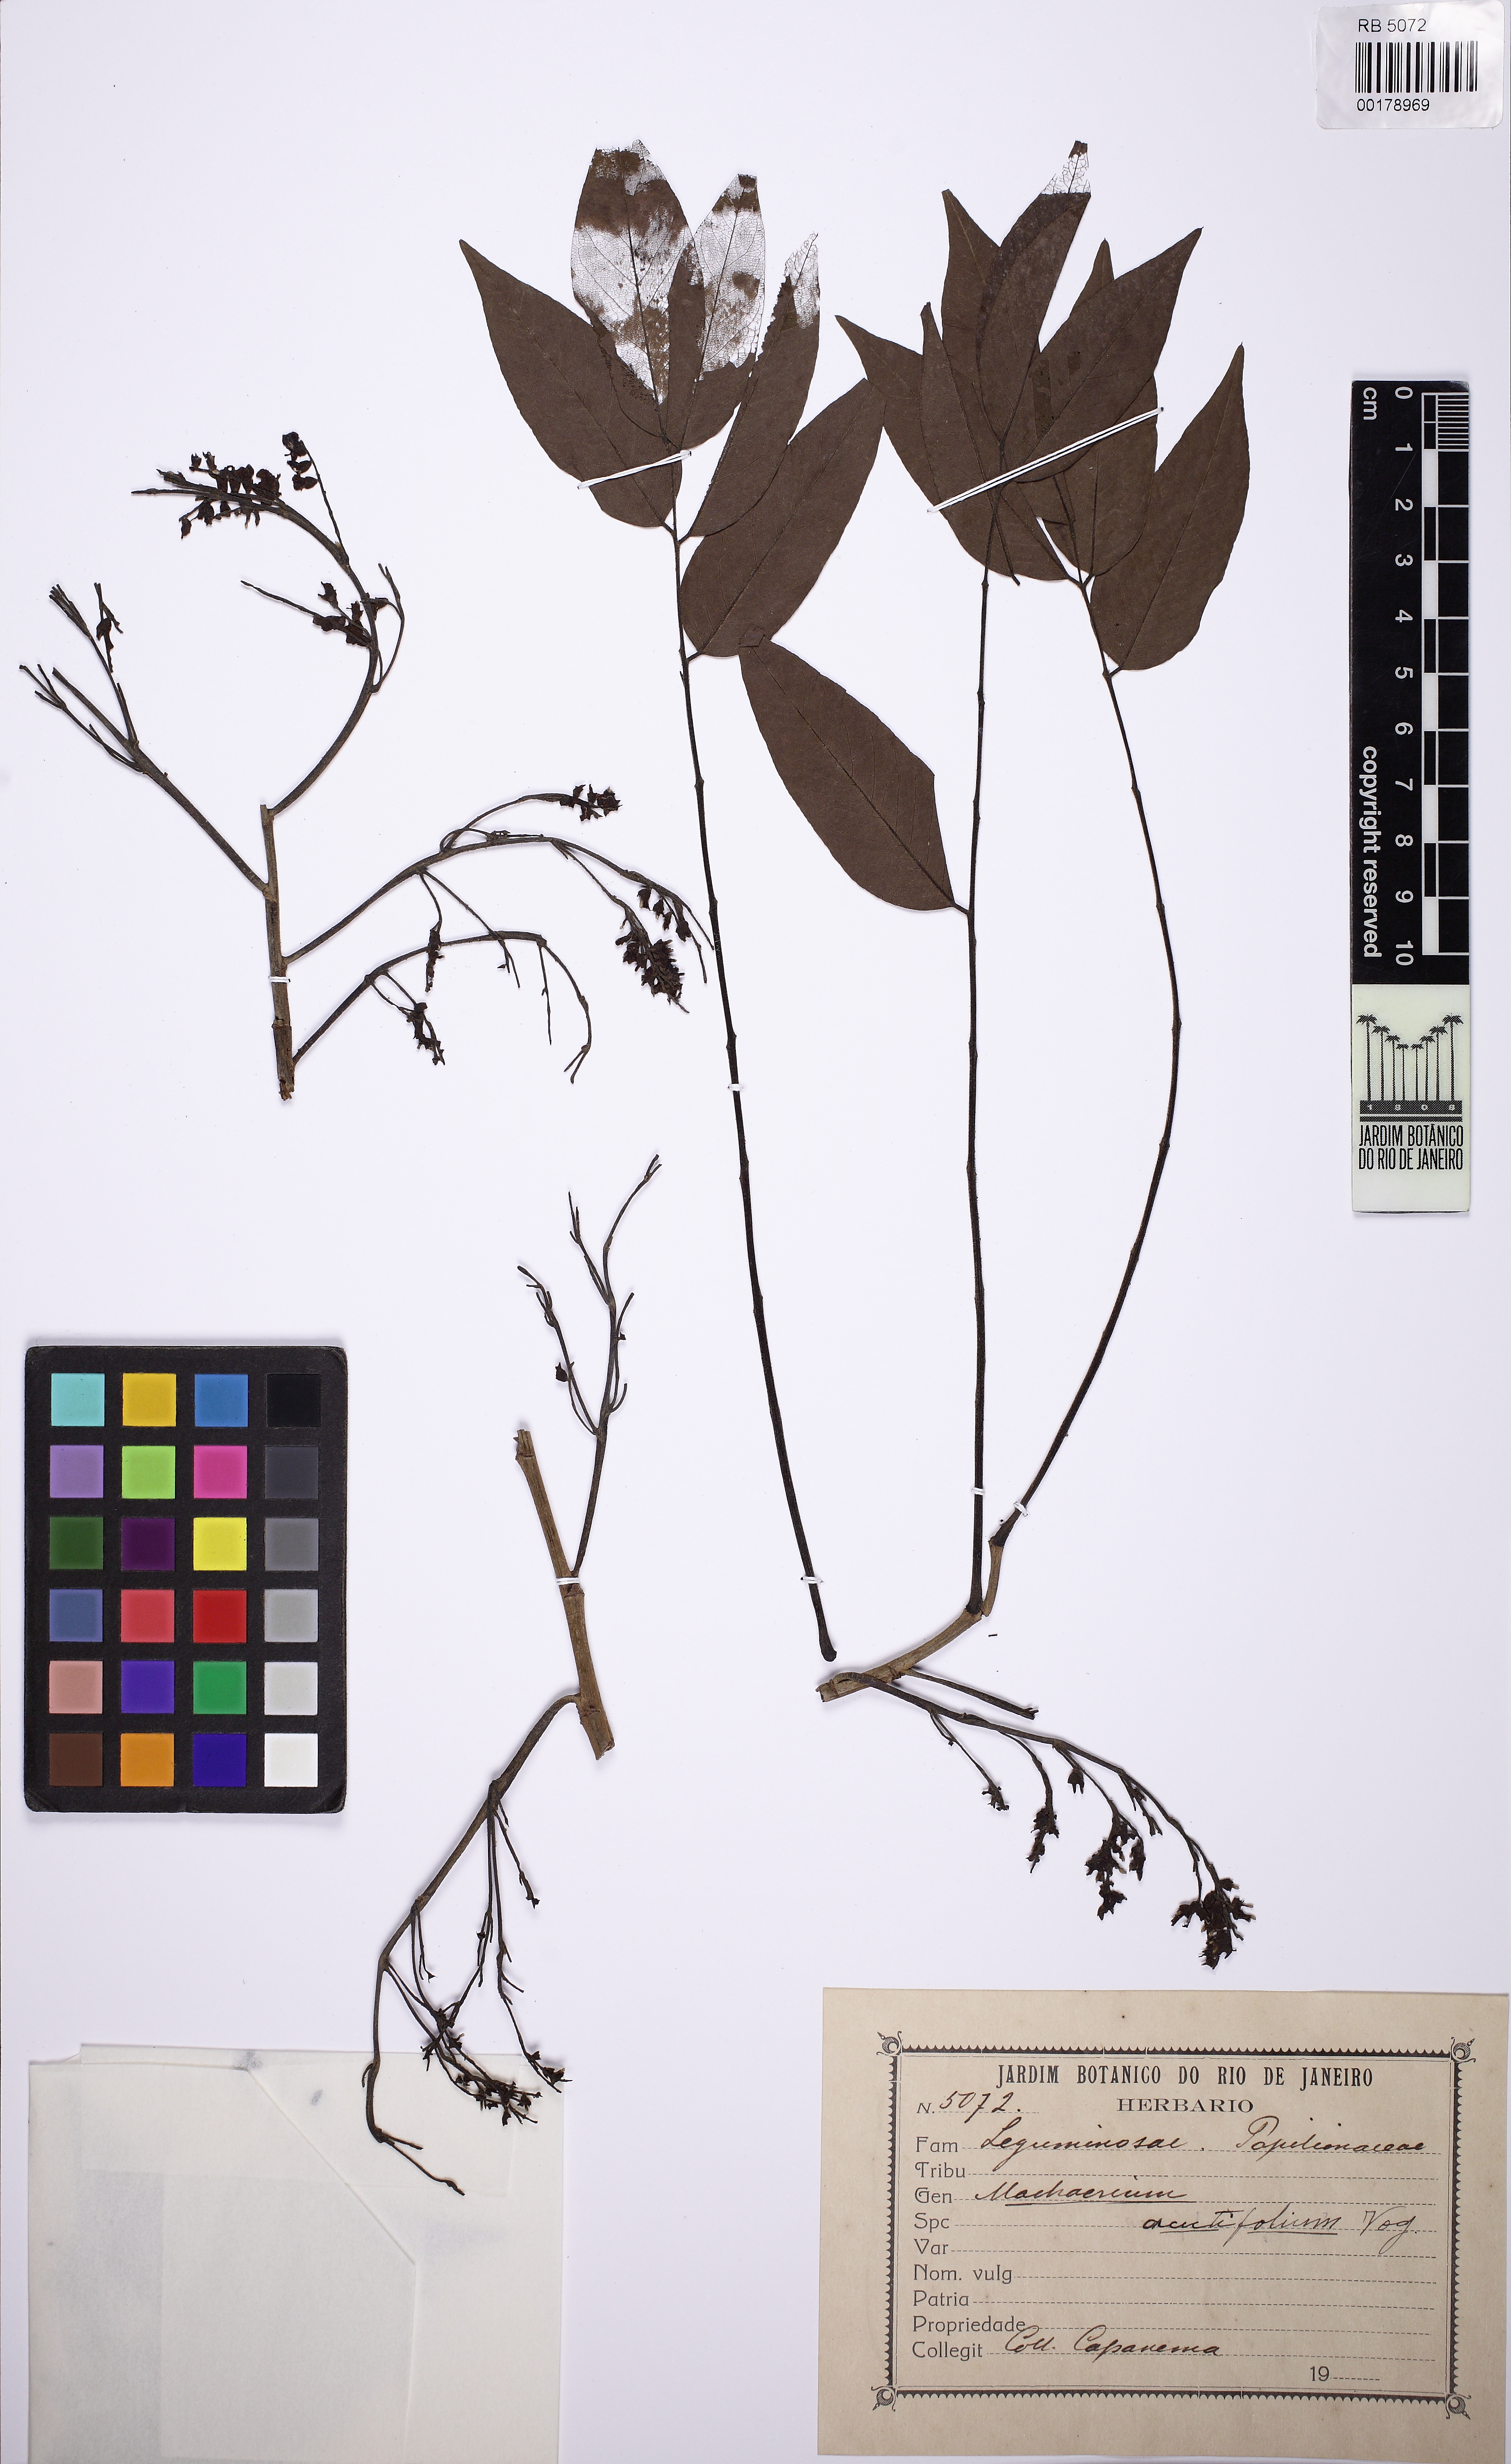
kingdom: Plantae
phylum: Tracheophyta
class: Magnoliopsida
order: Fabales
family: Fabaceae
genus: Machaerium
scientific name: Machaerium acutifolium
